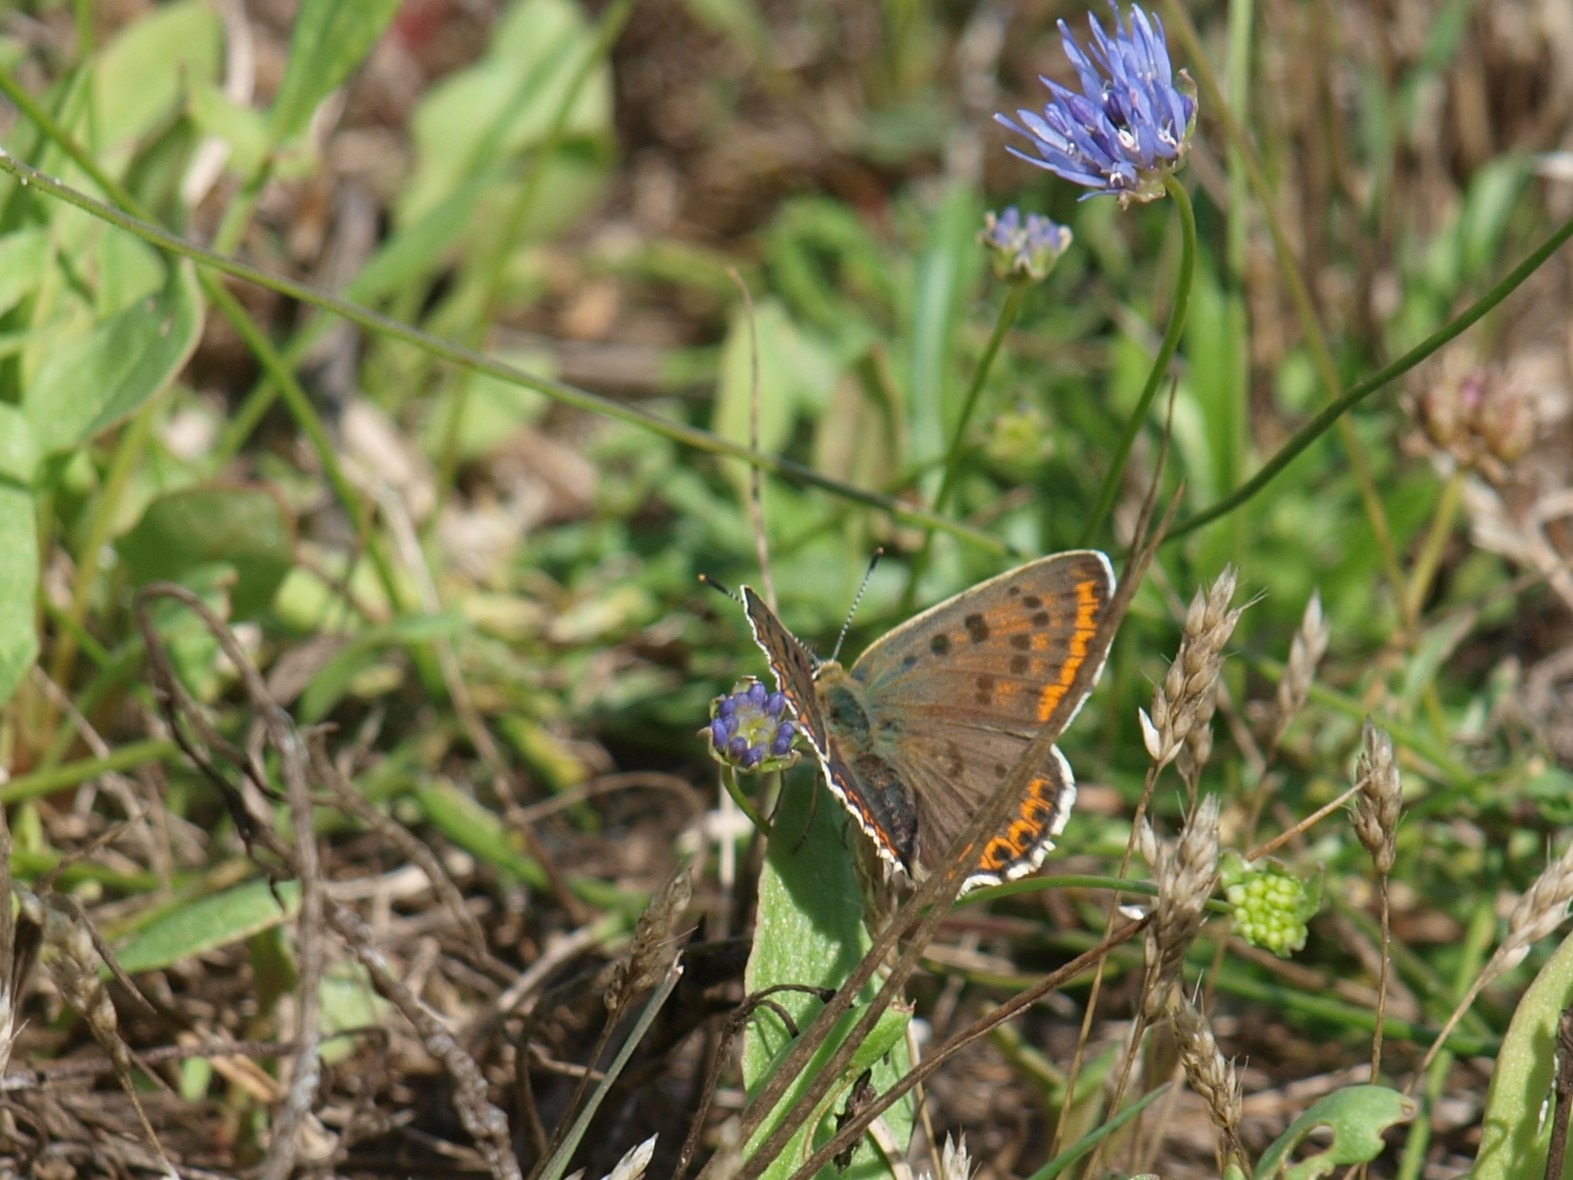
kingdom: Animalia
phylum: Arthropoda
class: Insecta
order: Lepidoptera
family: Lycaenidae
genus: Loweia
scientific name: Loweia tityrus
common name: Sort ildfugl
